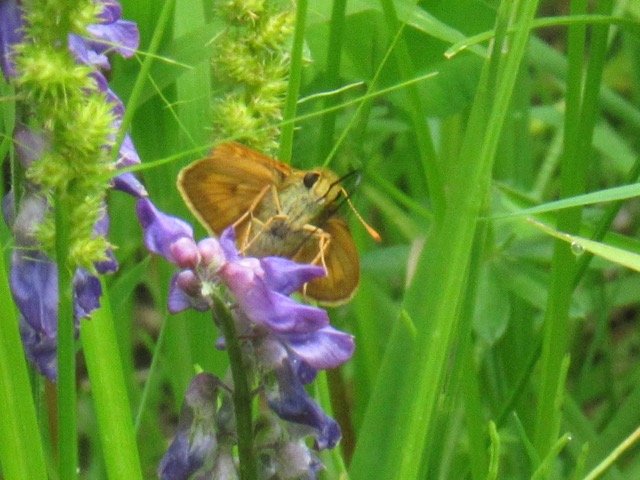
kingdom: Animalia
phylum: Arthropoda
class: Insecta
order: Lepidoptera
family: Hesperiidae
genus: Polites
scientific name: Polites
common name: Long Dash Skipper
